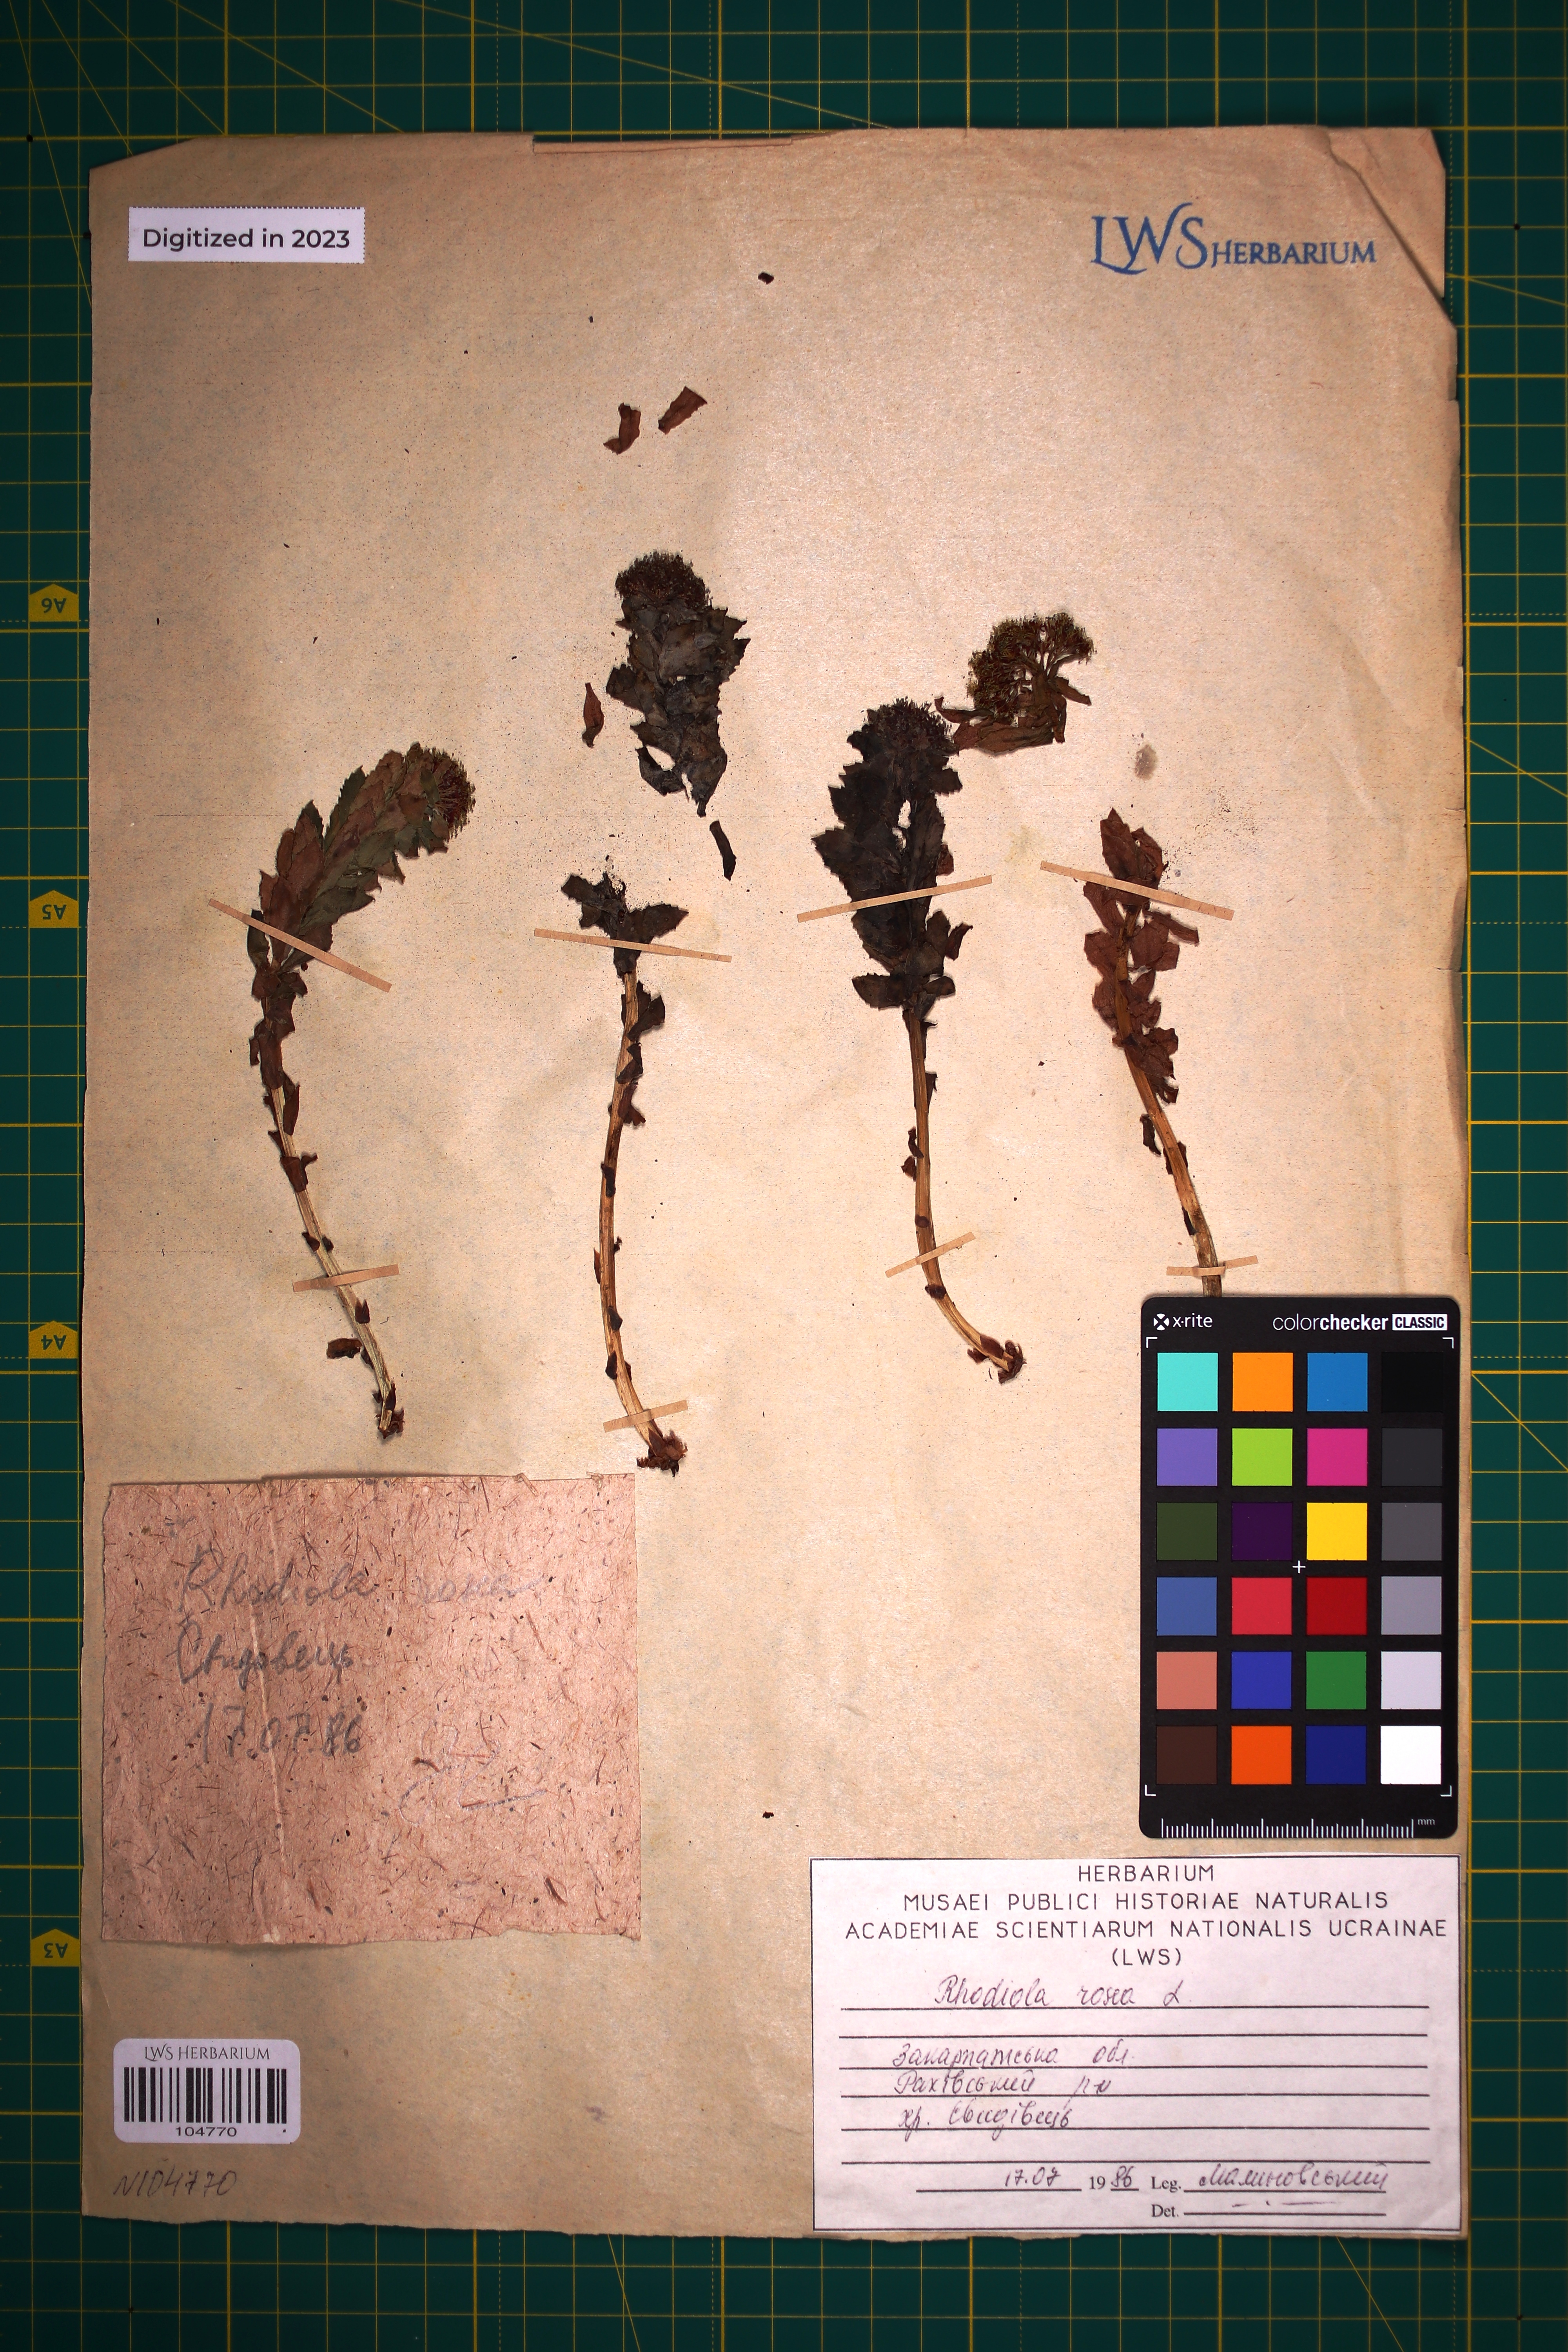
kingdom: Plantae
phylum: Tracheophyta
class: Magnoliopsida
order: Saxifragales
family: Crassulaceae
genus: Rhodiola
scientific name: Rhodiola rosea
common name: Roseroot
